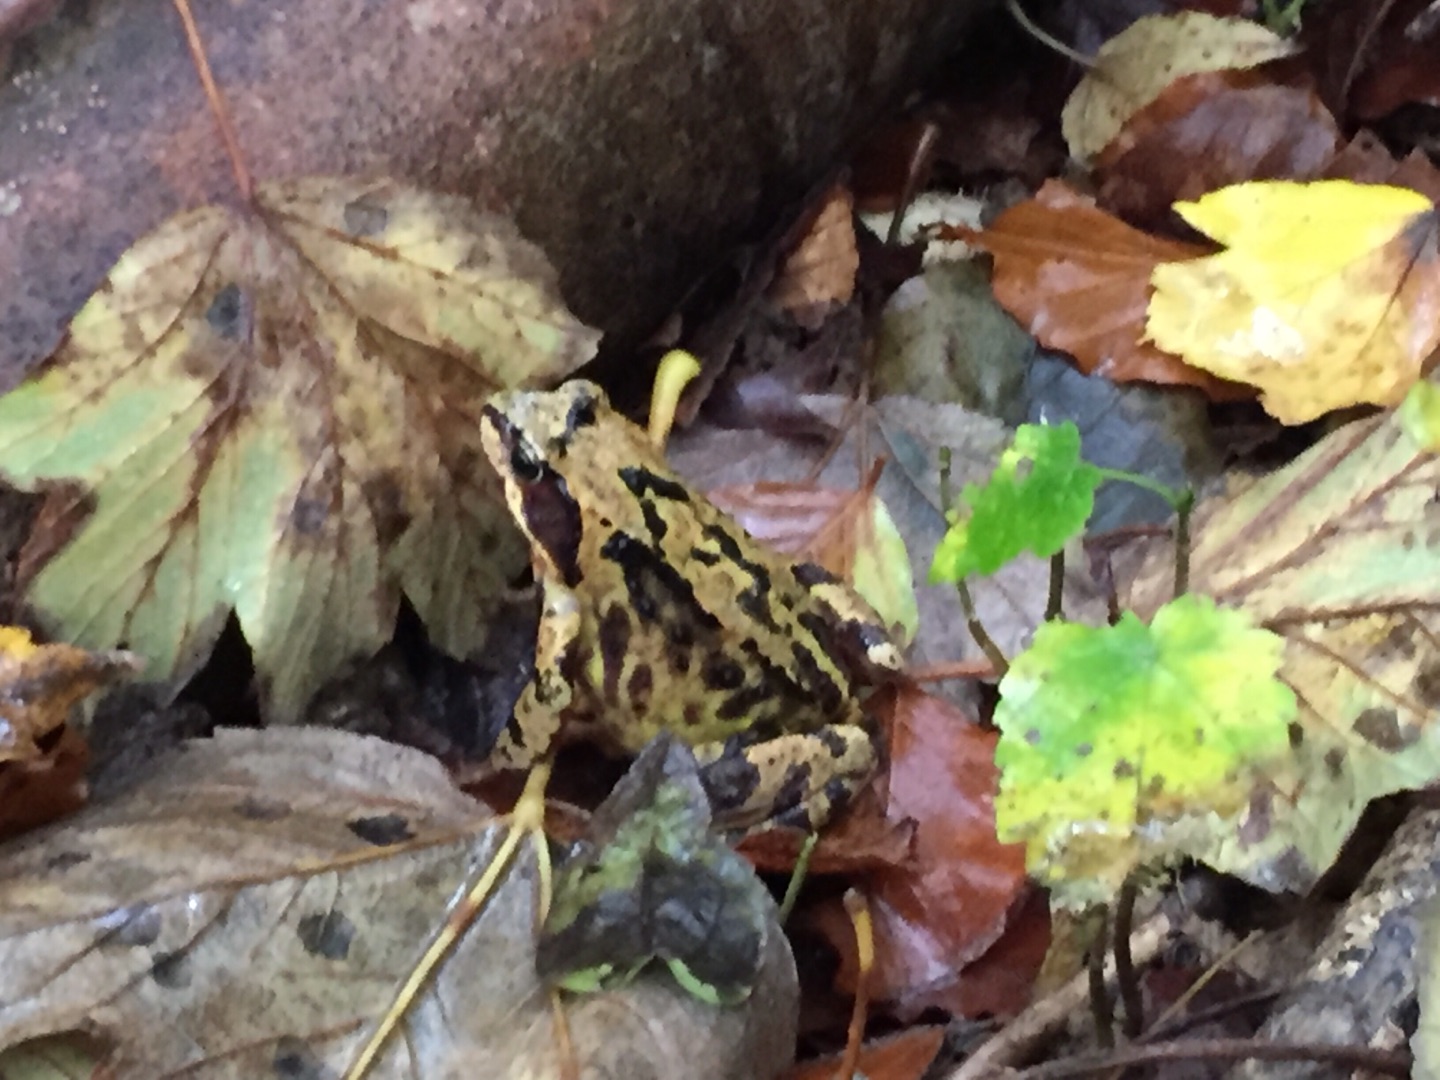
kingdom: Animalia
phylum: Chordata
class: Amphibia
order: Anura
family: Ranidae
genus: Rana
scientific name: Rana temporaria
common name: Butsnudet frø
